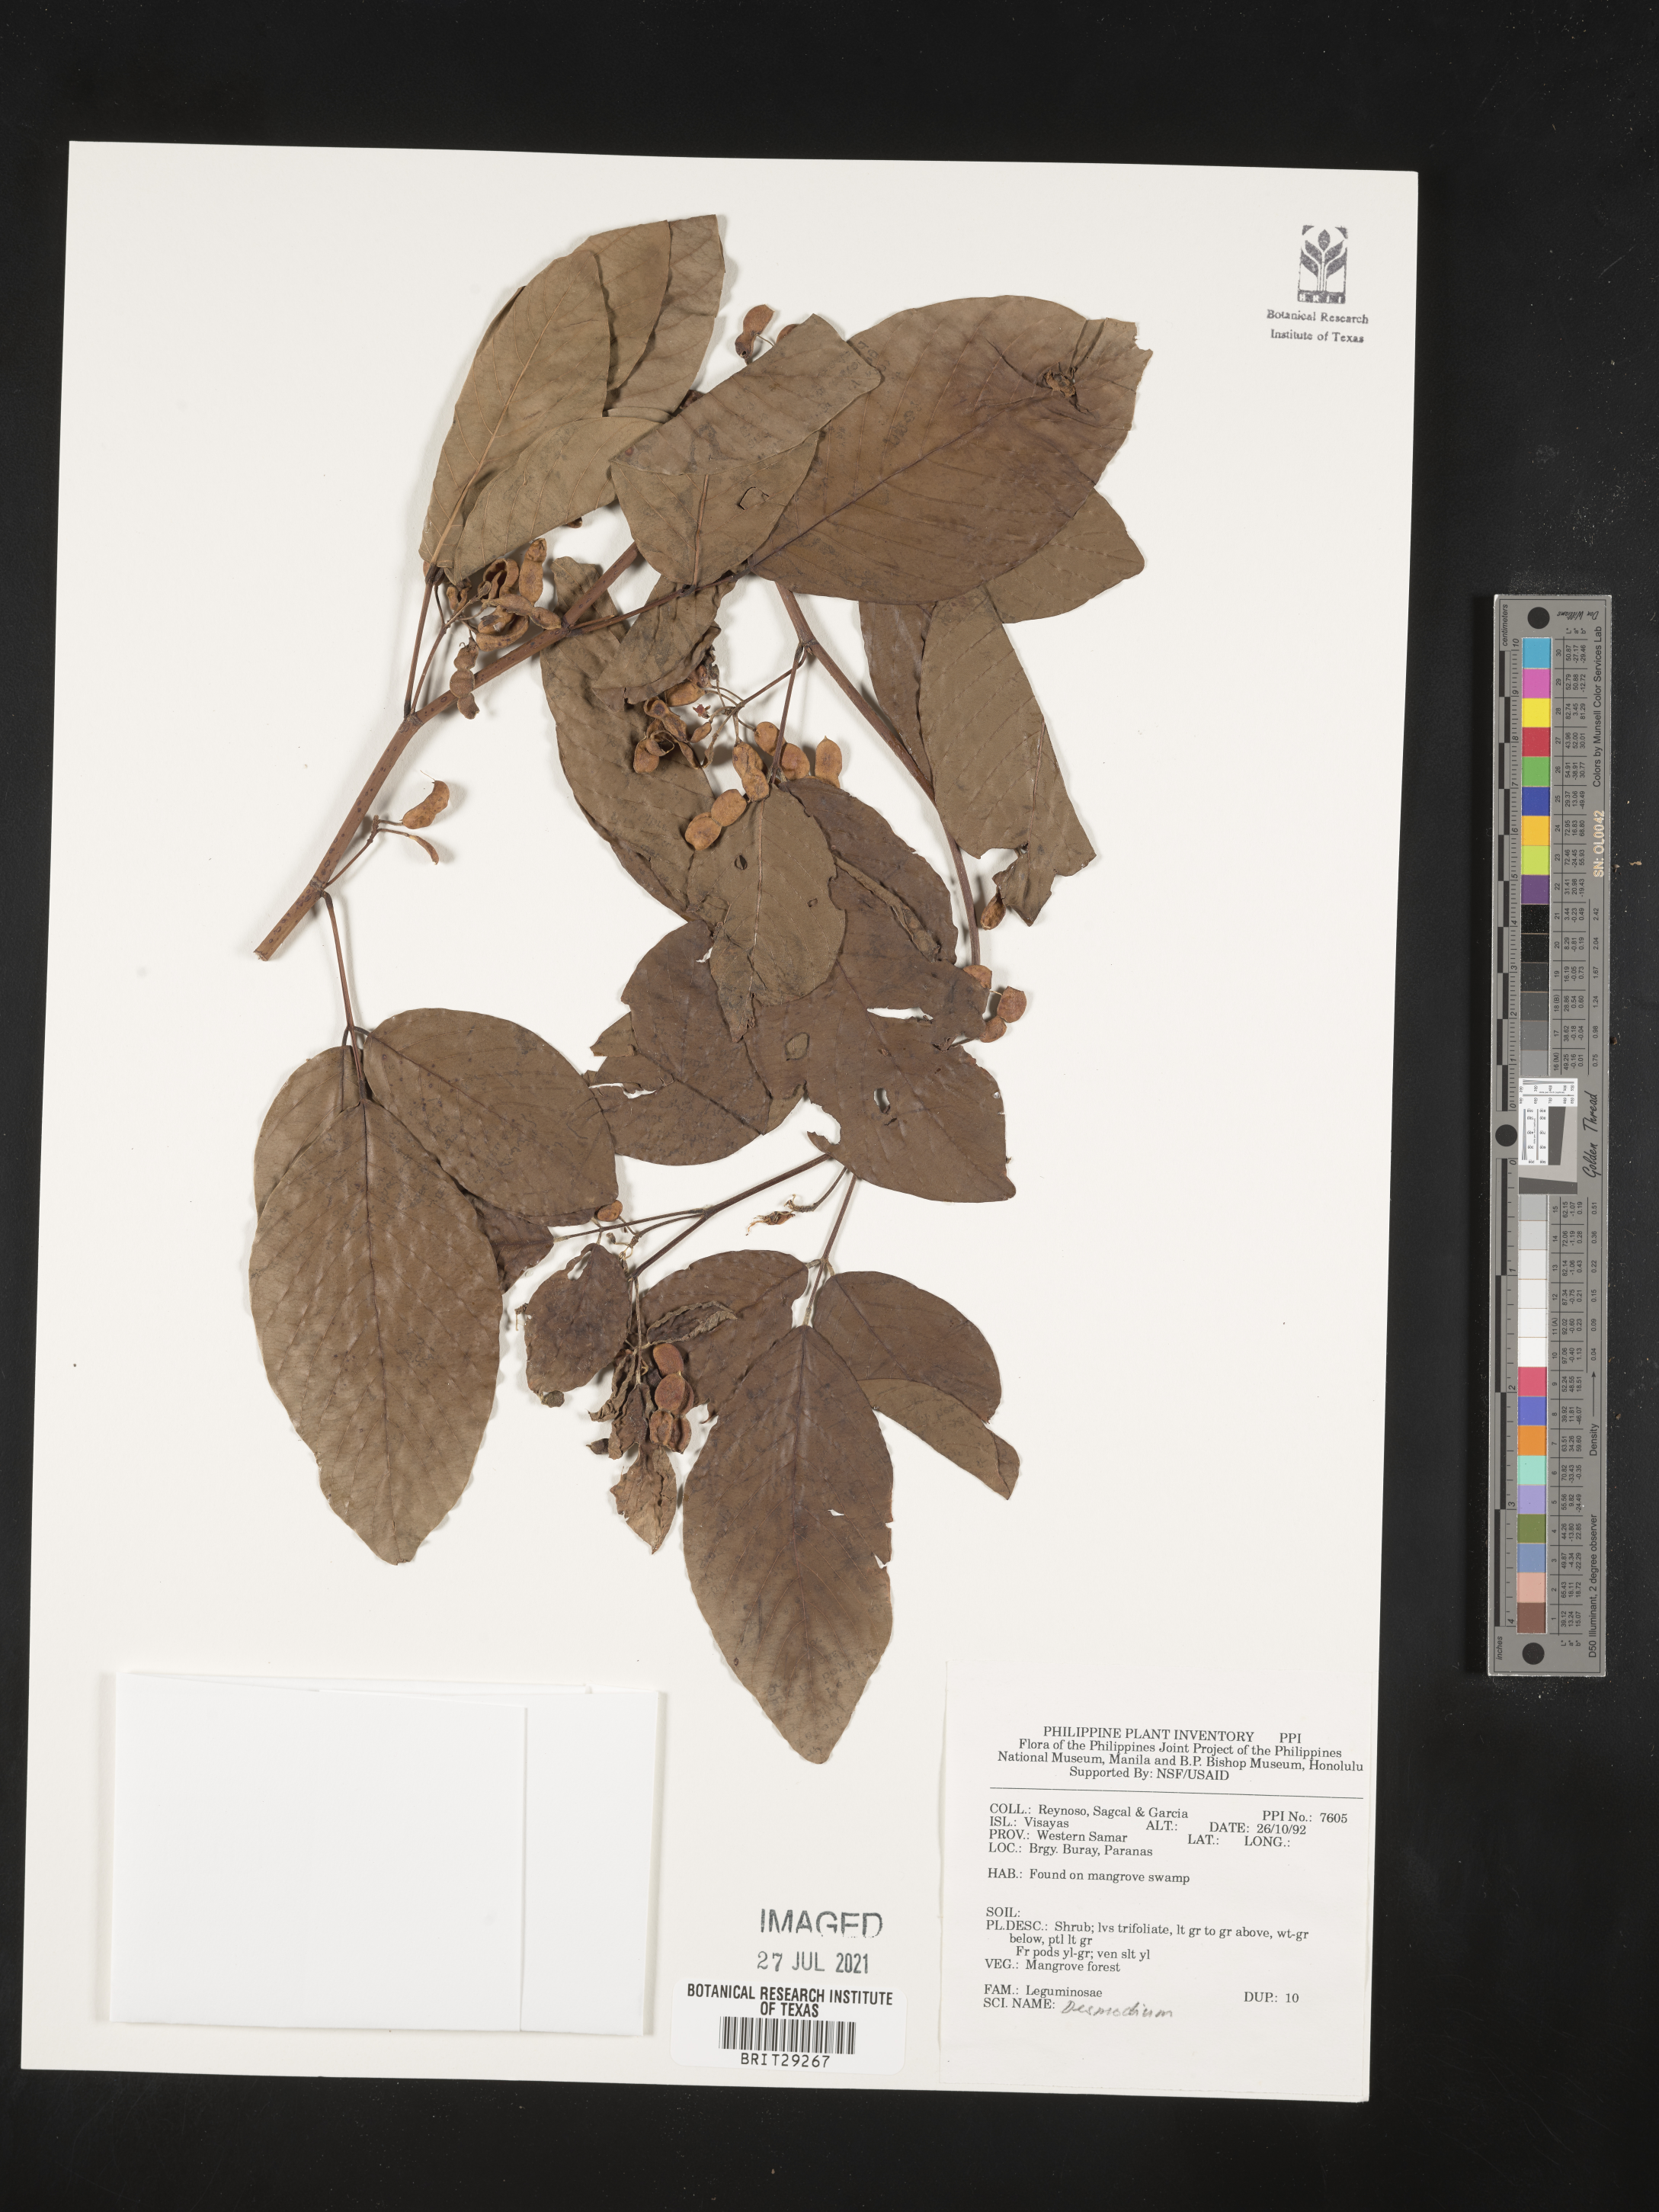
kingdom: Plantae
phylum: Tracheophyta
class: Magnoliopsida
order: Fabales
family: Fabaceae
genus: Desmodium
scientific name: Desmodium
